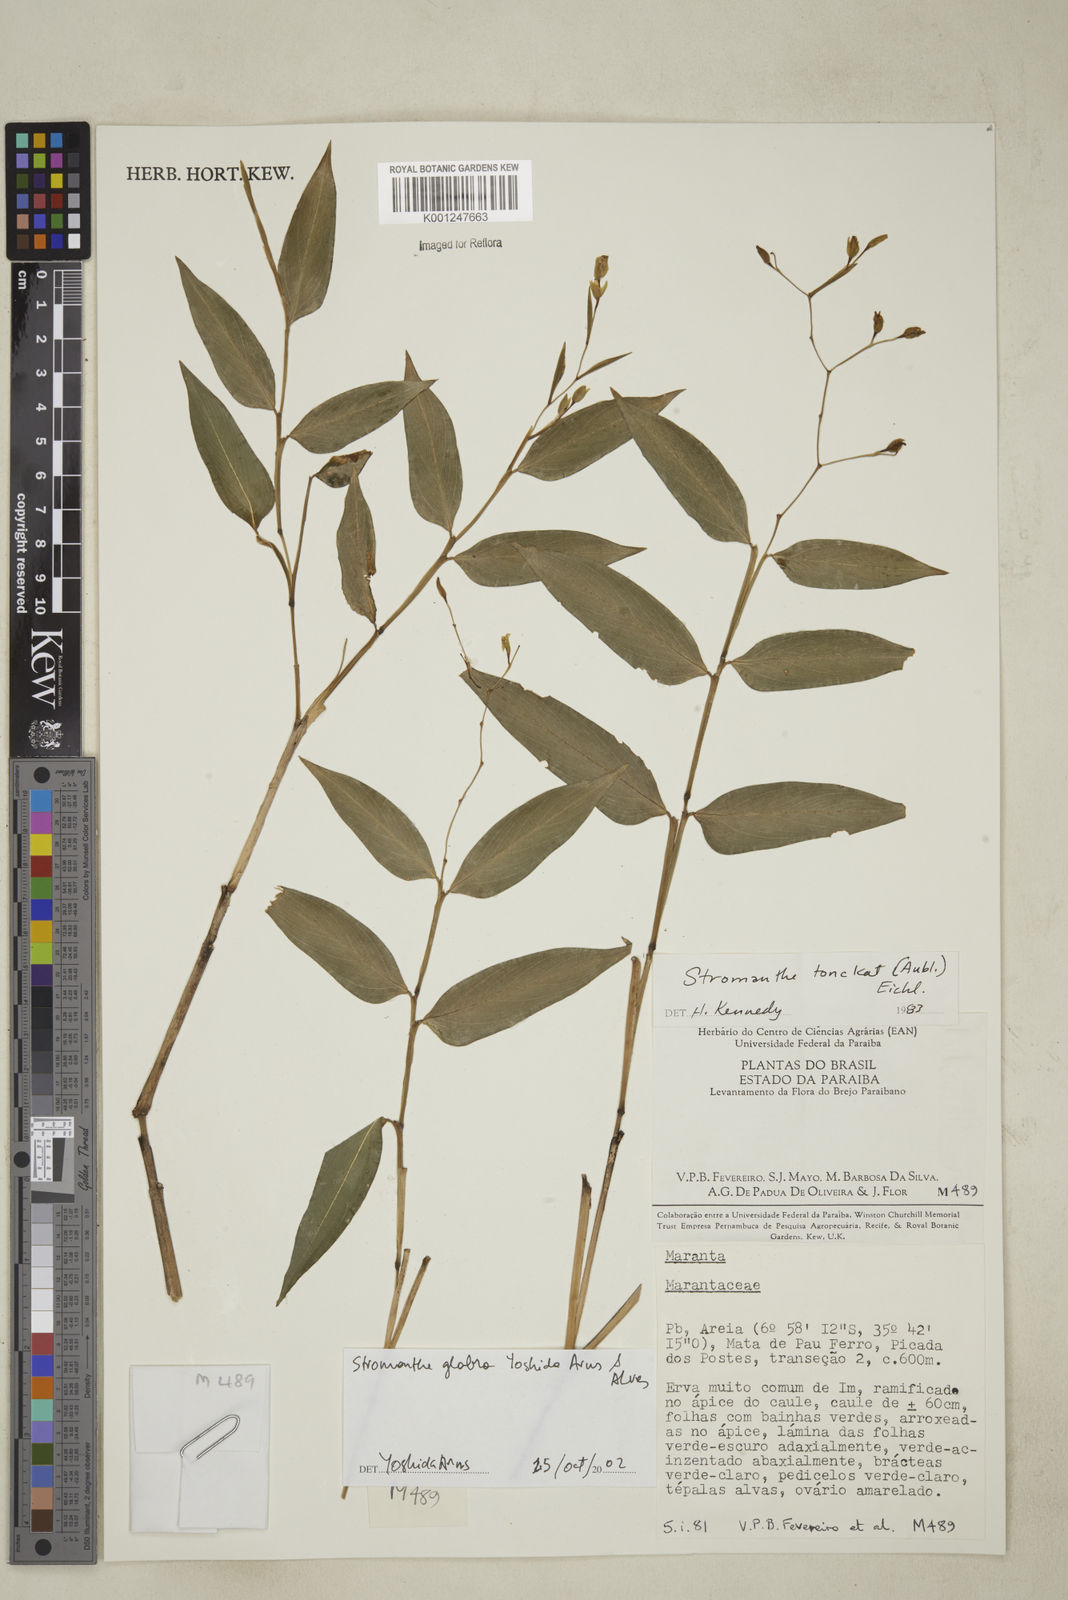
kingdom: Plantae
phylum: Tracheophyta
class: Liliopsida
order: Zingiberales
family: Marantaceae
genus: Stromanthe
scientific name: Stromanthe tonckat
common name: Stromanthe
